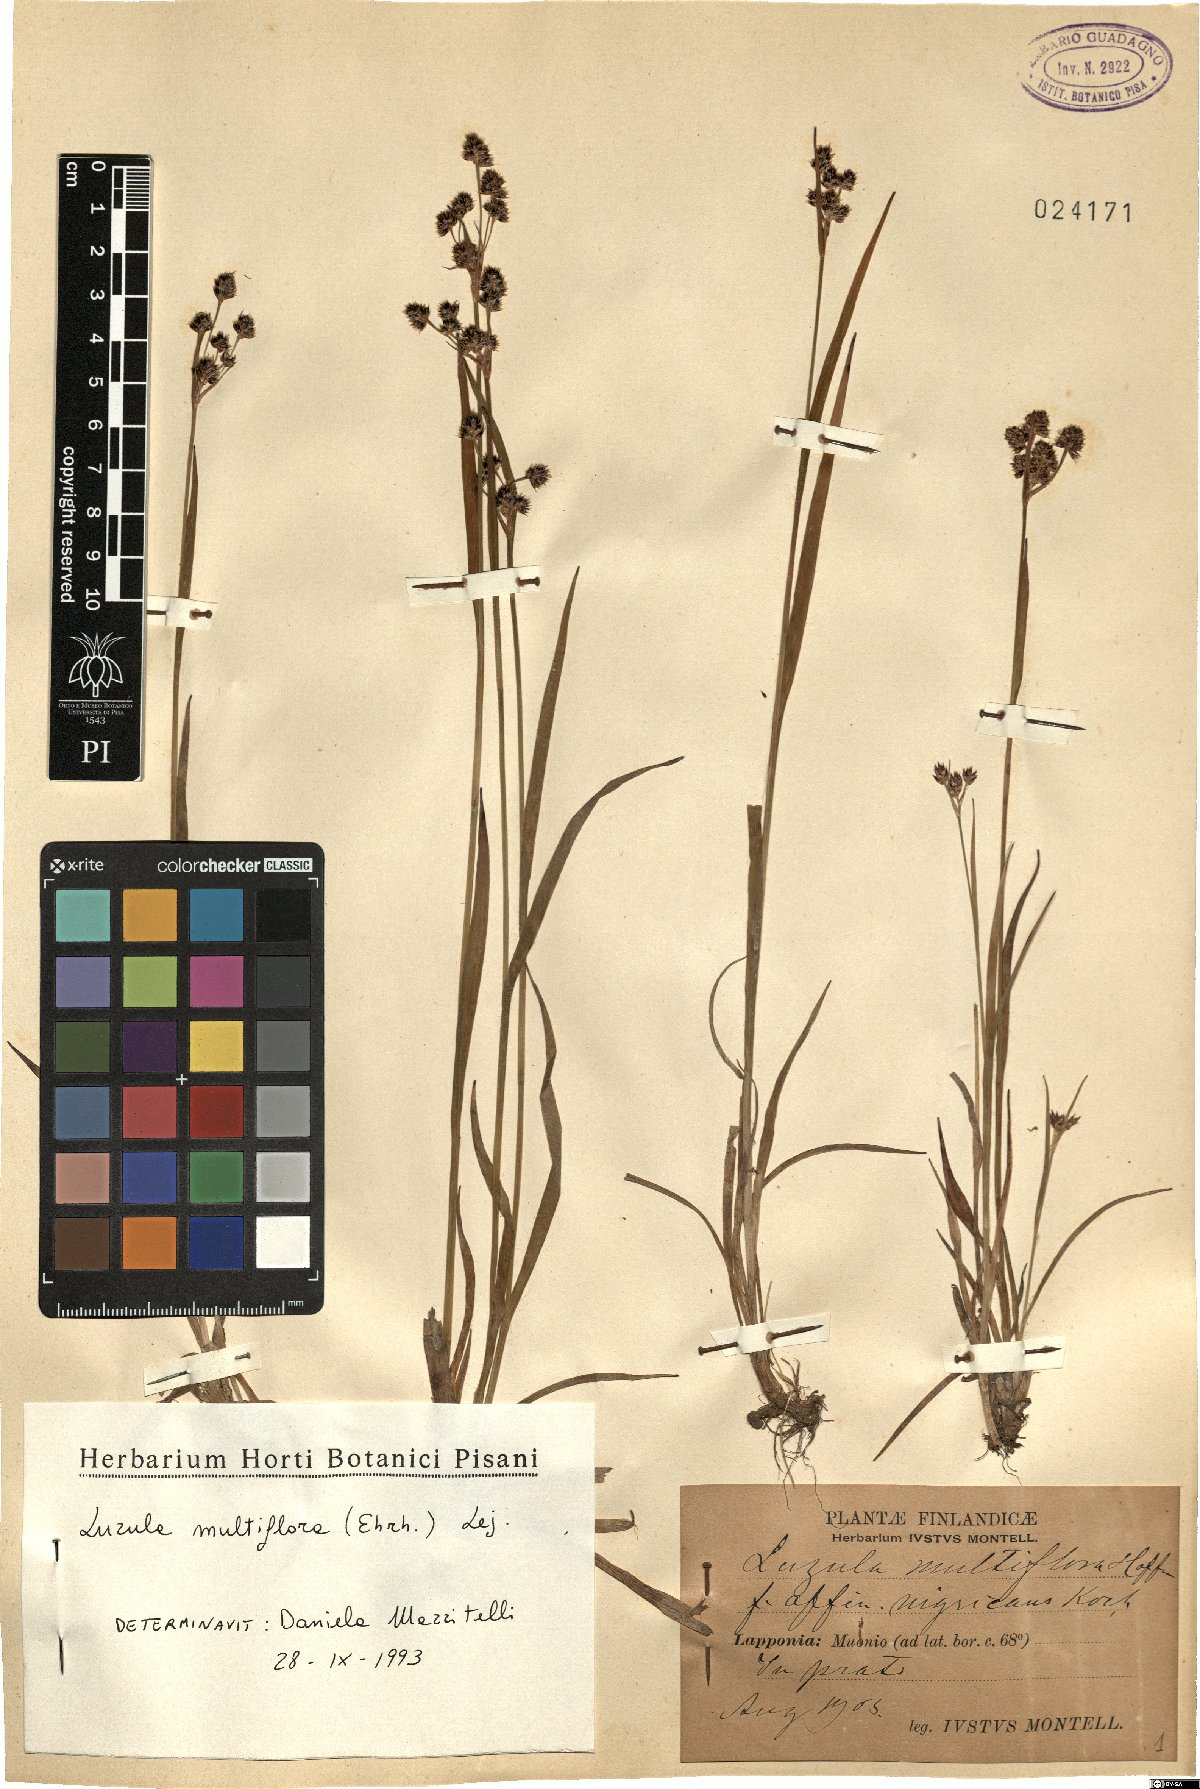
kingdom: Plantae
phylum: Tracheophyta
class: Liliopsida
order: Poales
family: Juncaceae
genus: Luzula
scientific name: Luzula multiflora
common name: Heath wood-rush
